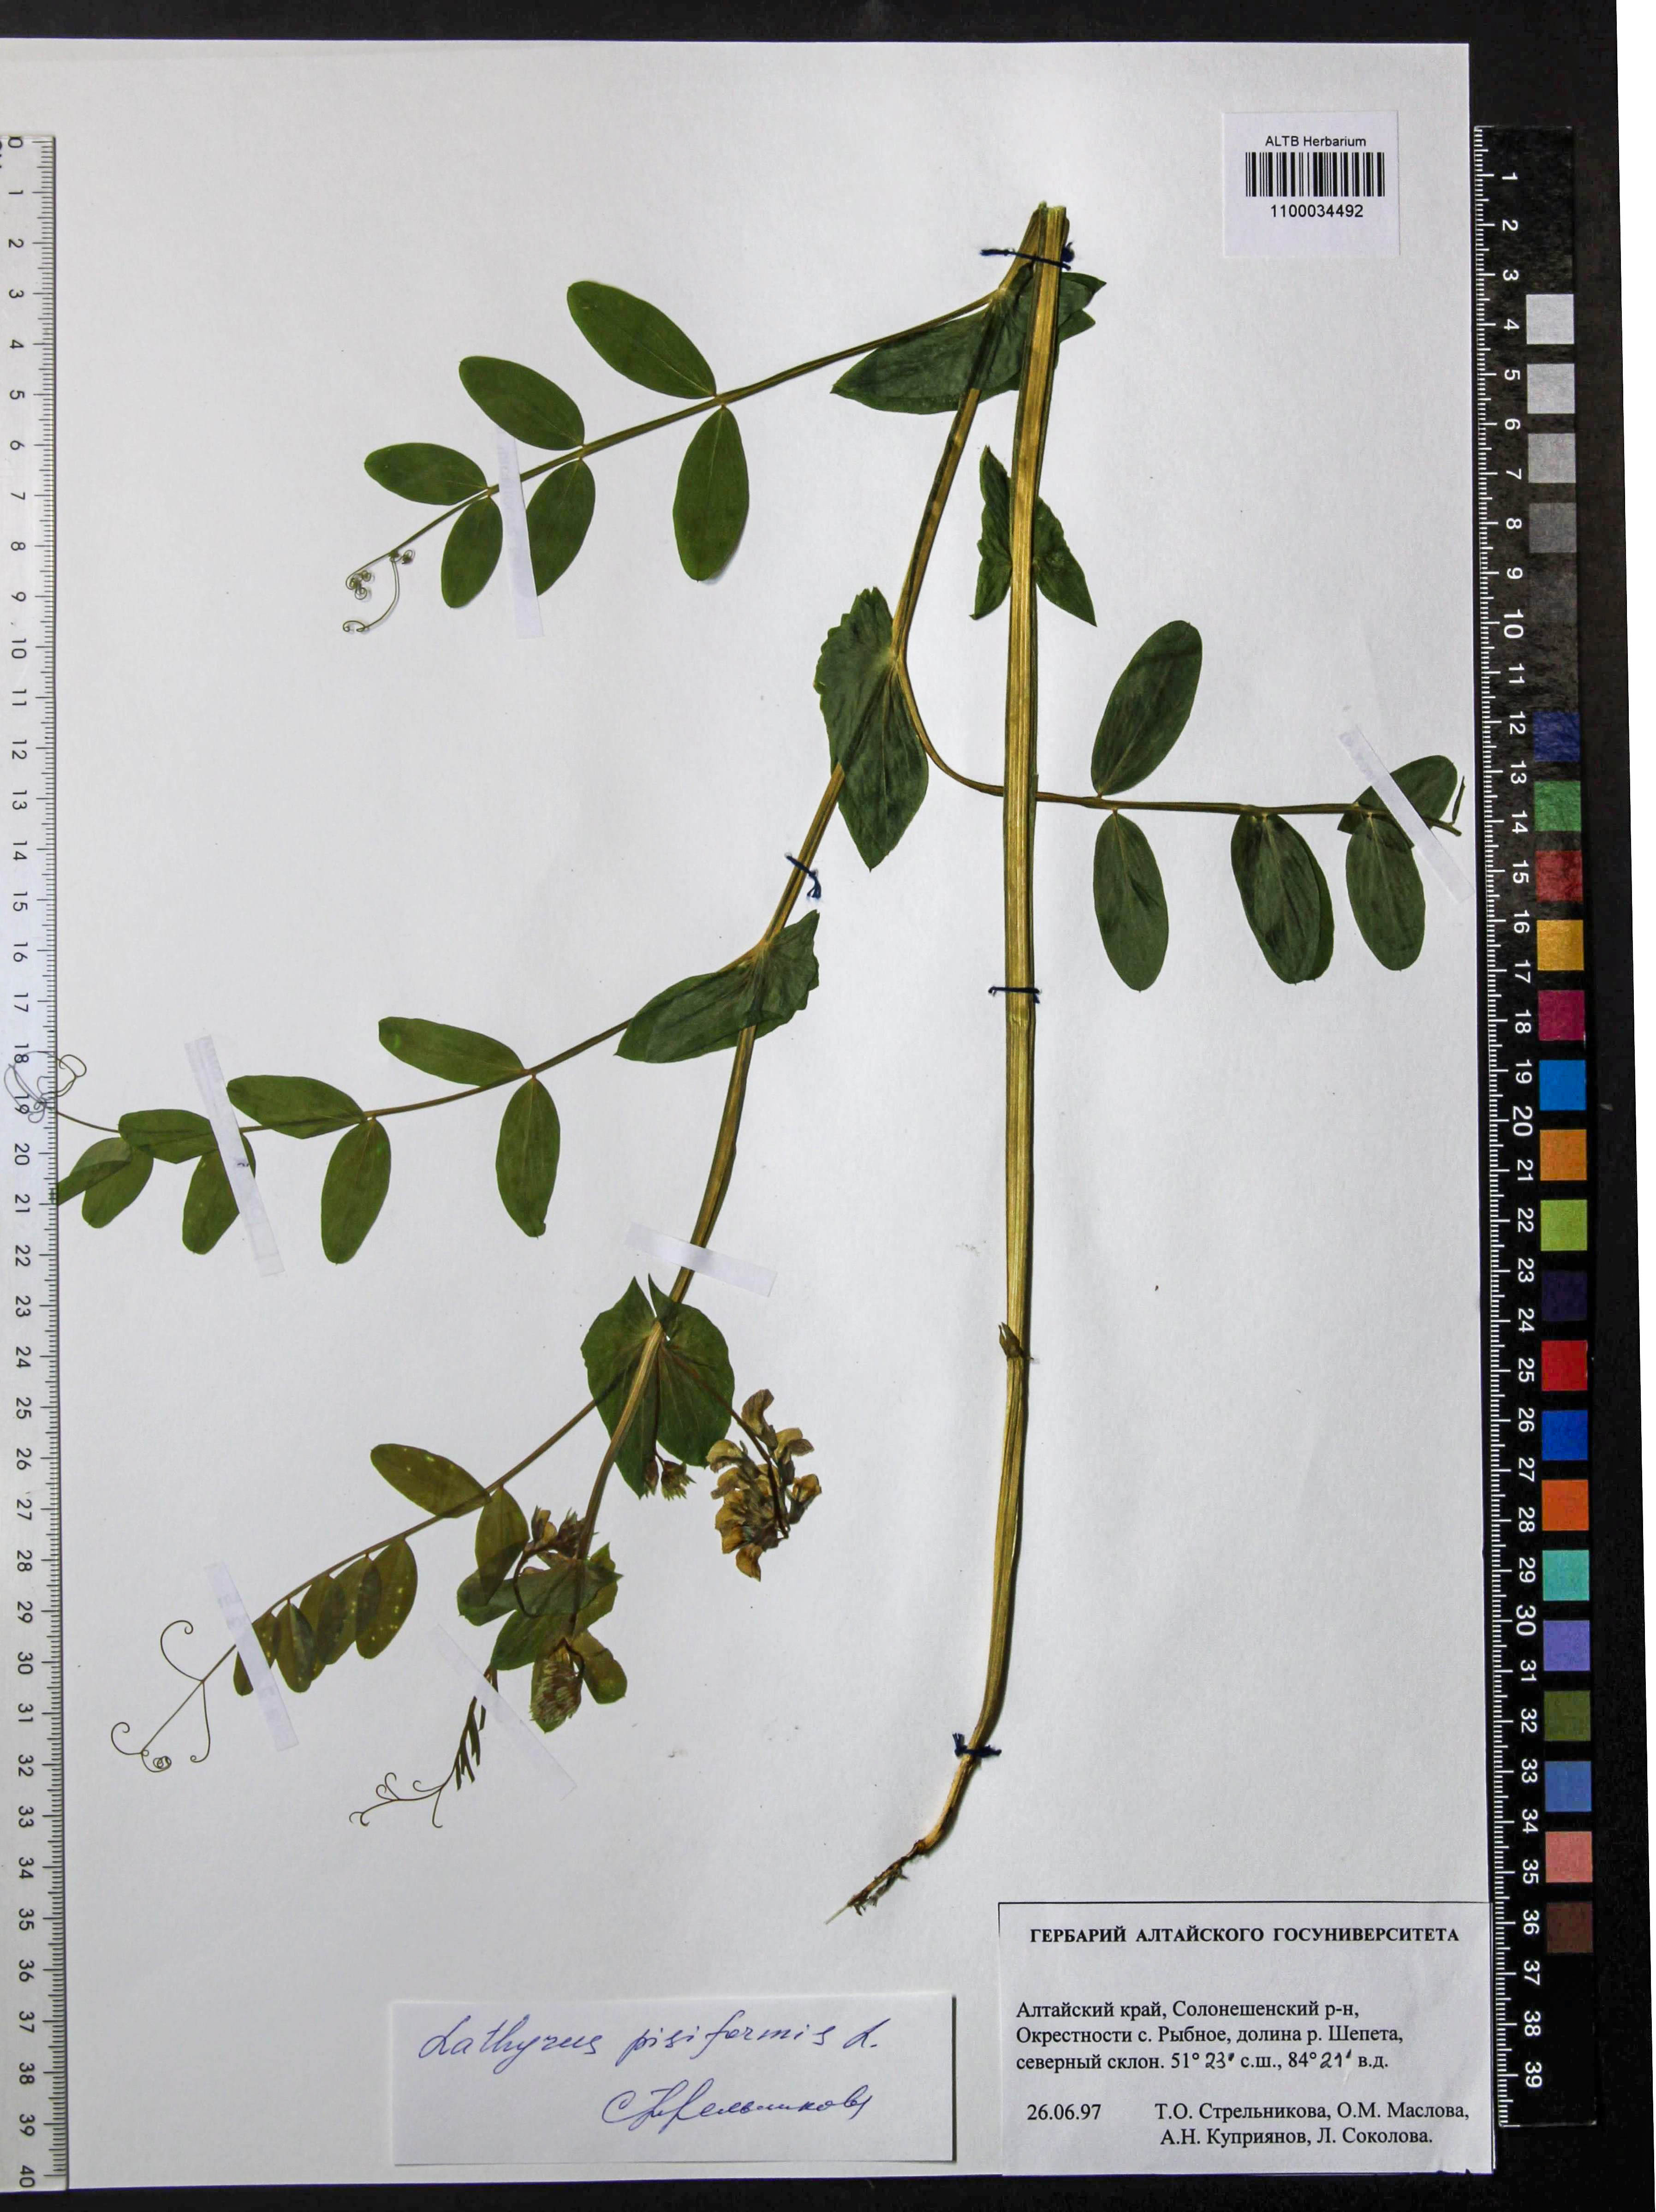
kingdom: Plantae
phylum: Tracheophyta
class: Magnoliopsida
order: Fabales
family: Fabaceae
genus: Lathyrus
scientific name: Lathyrus pisiformis
